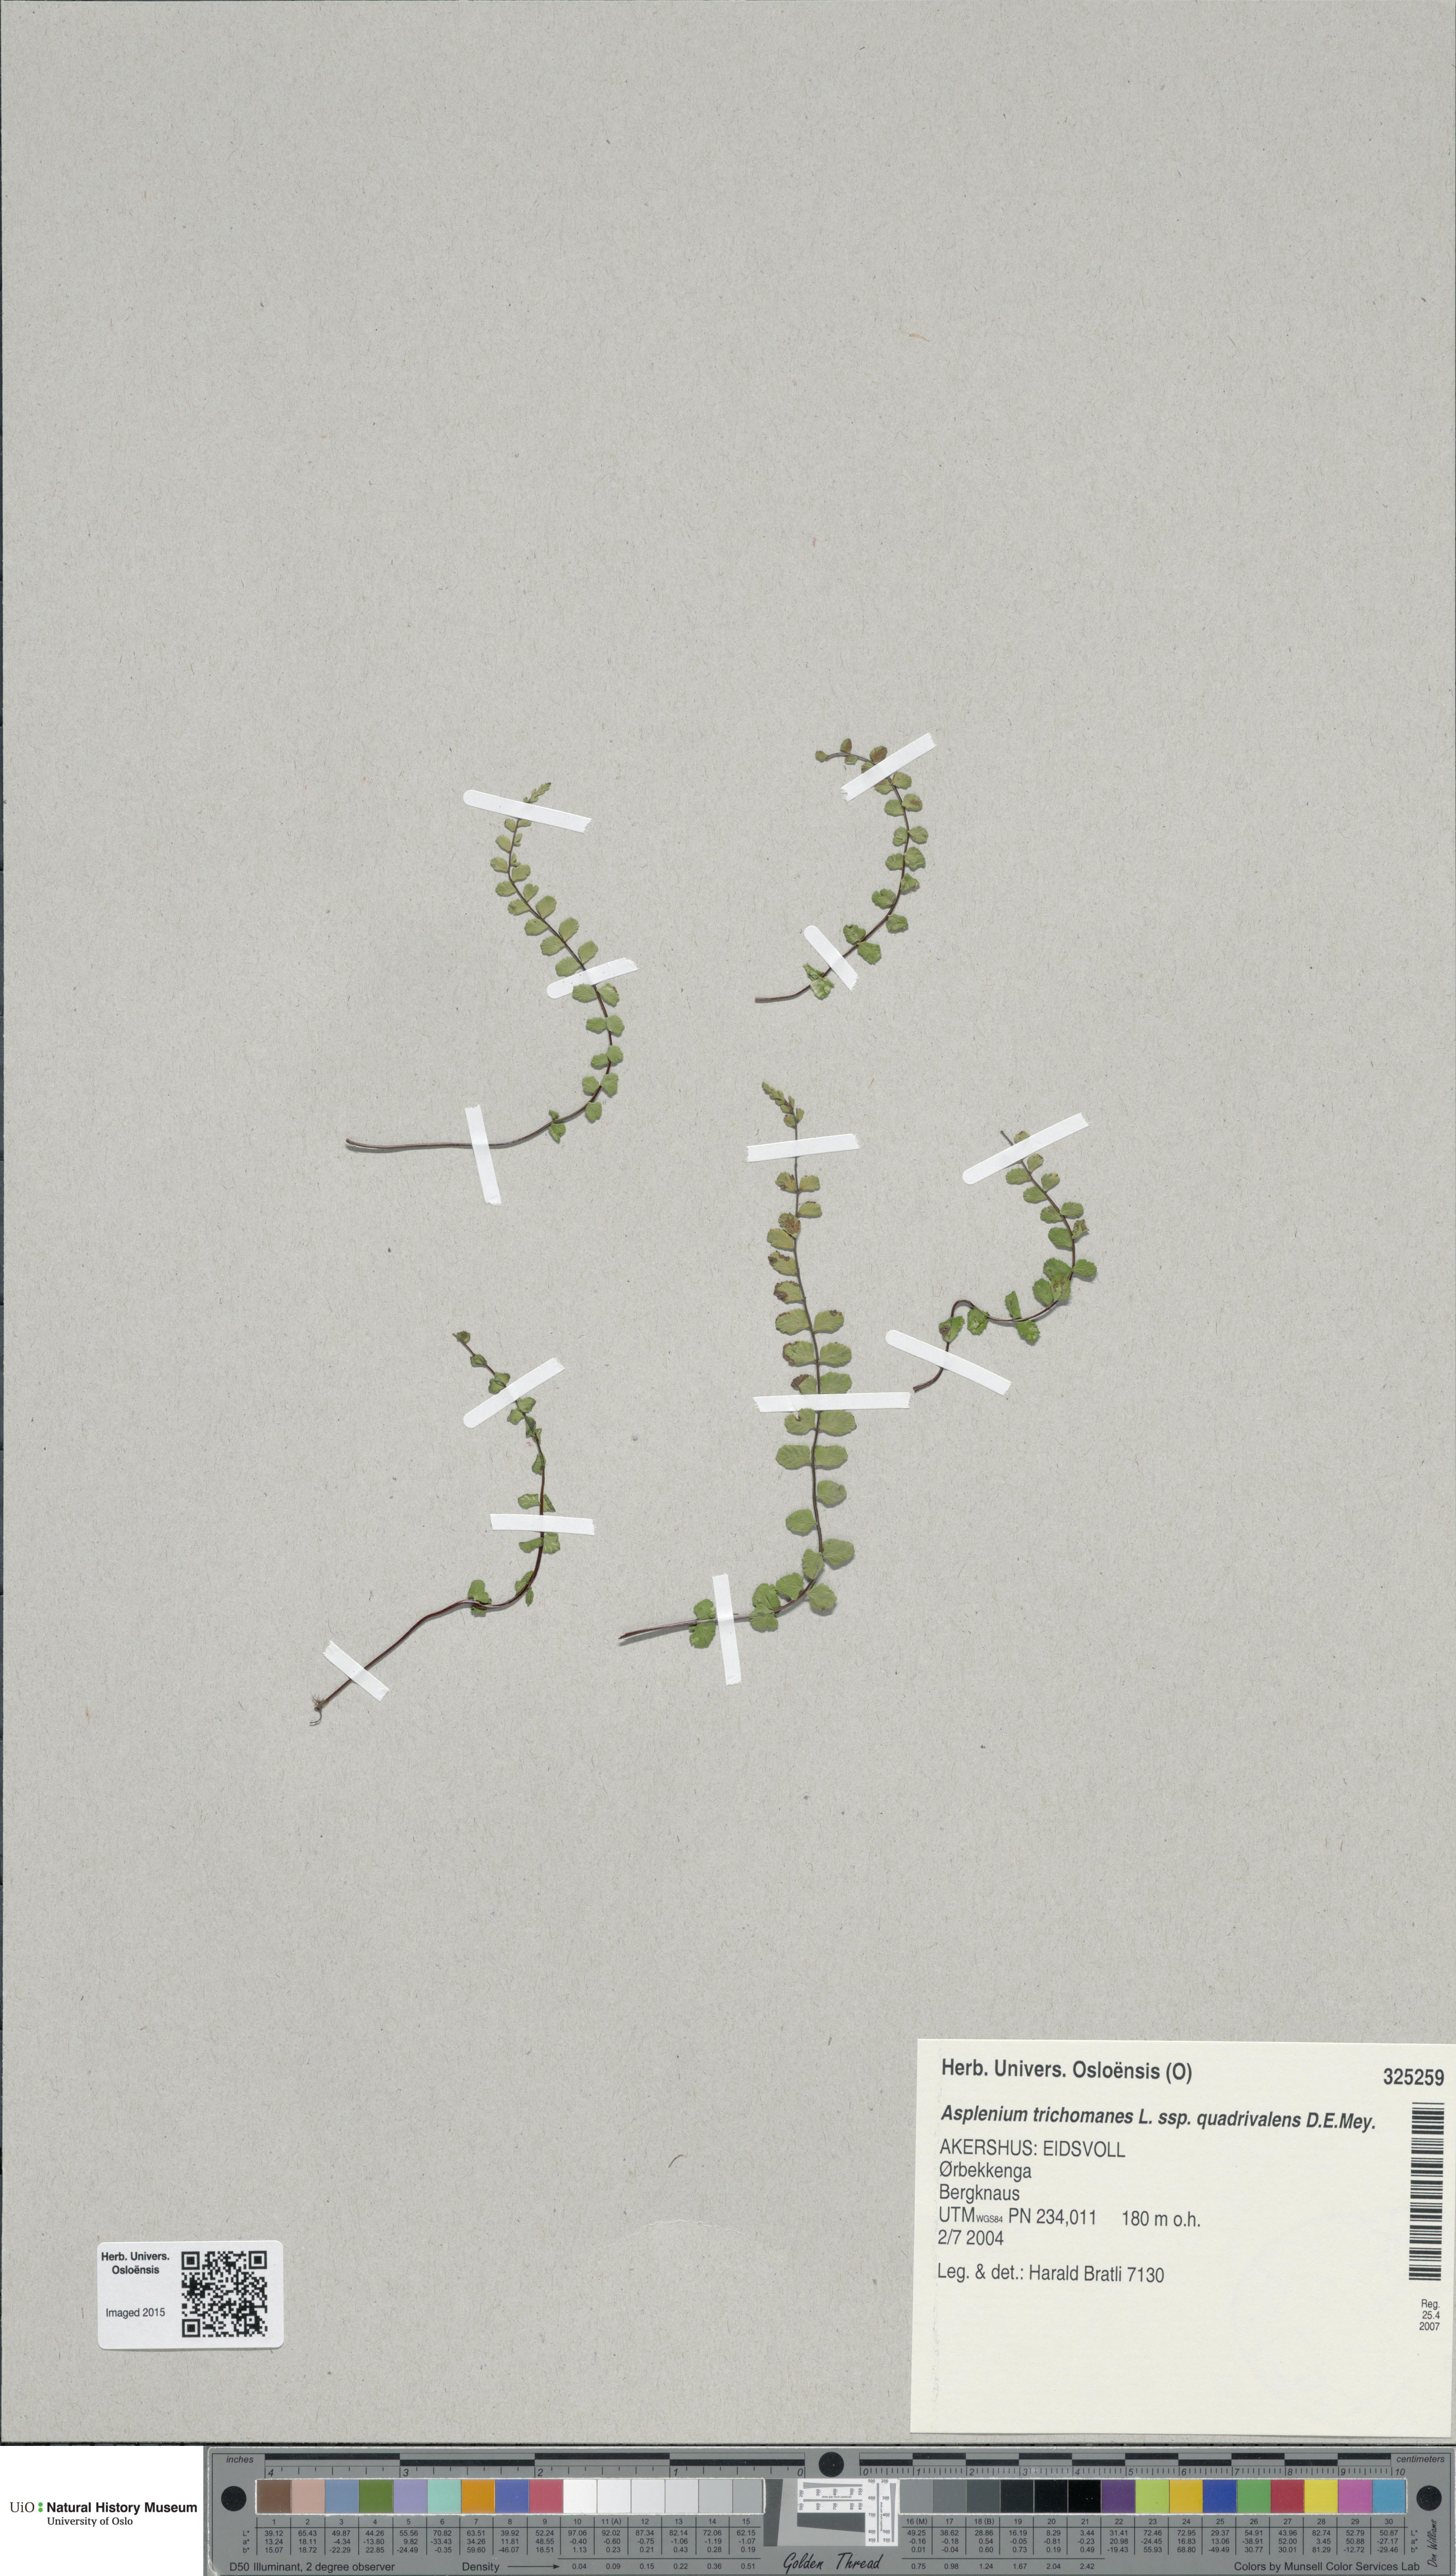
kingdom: Plantae
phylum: Tracheophyta
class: Polypodiopsida
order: Polypodiales
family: Aspleniaceae
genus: Asplenium
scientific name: Asplenium quadrivalens
